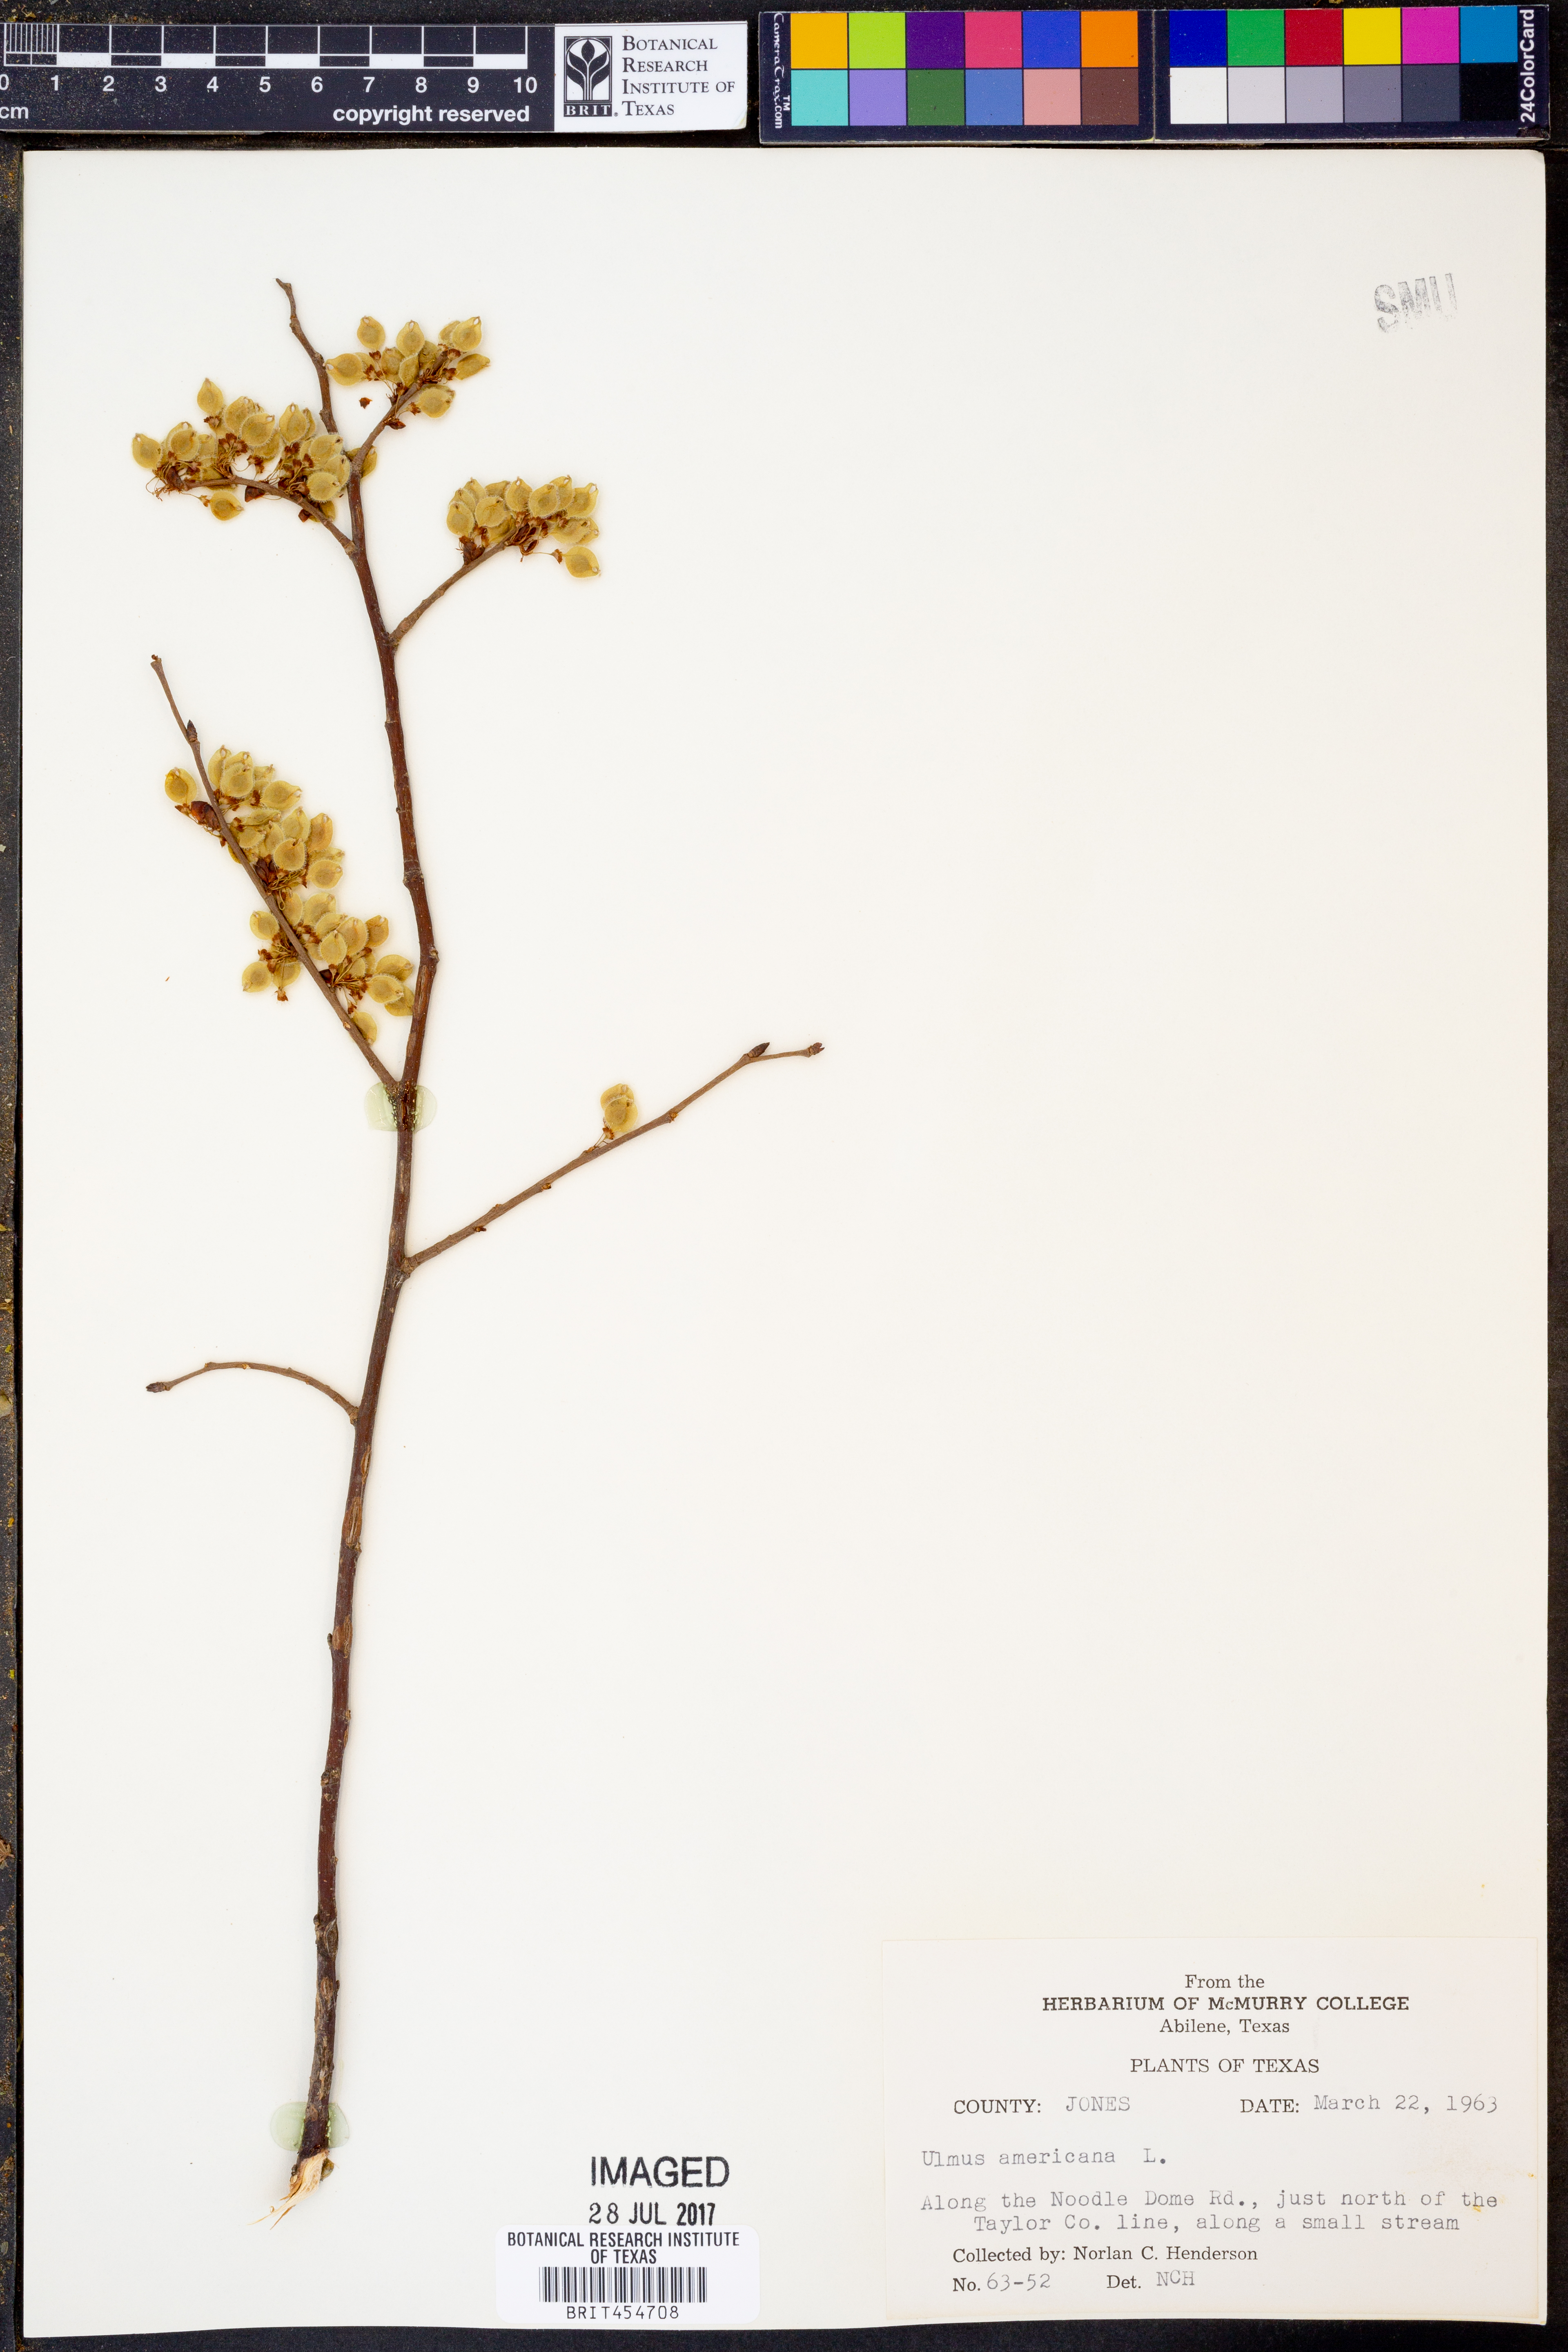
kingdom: Plantae
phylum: Tracheophyta
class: Magnoliopsida
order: Rosales
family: Ulmaceae
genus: Ulmus
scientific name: Ulmus americana
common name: American elm
